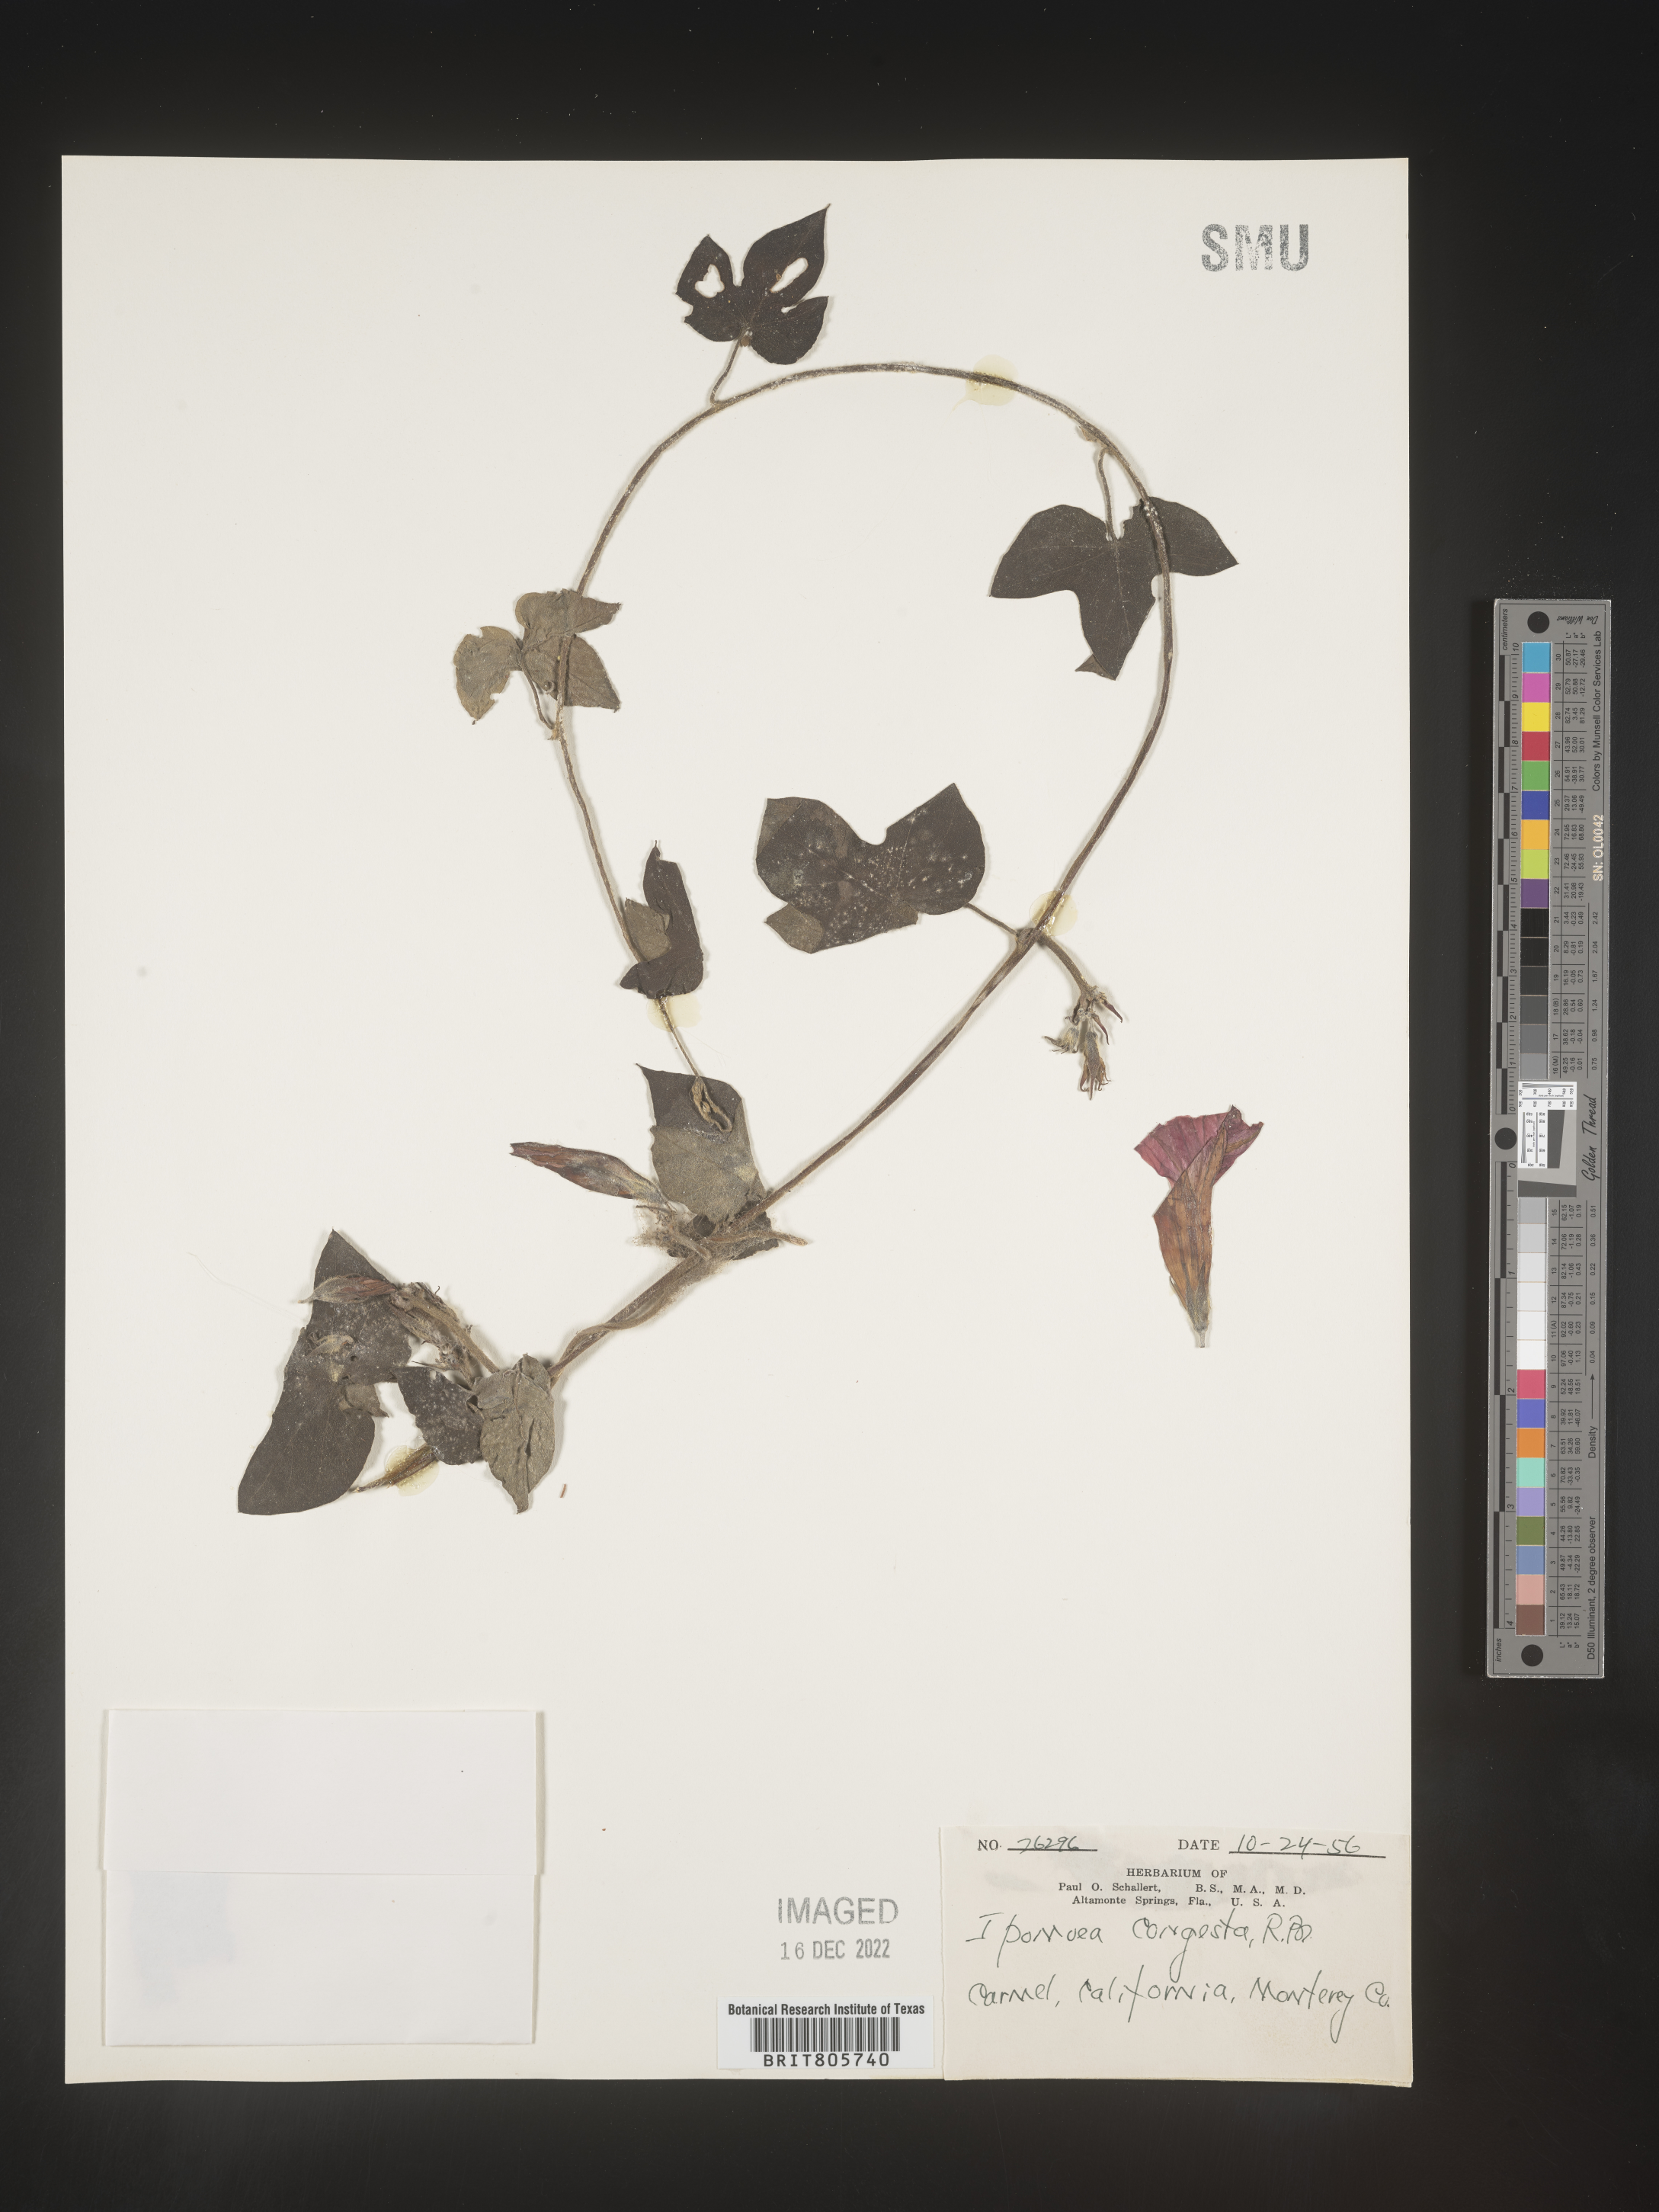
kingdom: Plantae
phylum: Tracheophyta
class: Magnoliopsida
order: Solanales
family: Convolvulaceae
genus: Ipomoea
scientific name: Ipomoea coccinea
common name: Red morning-glory
